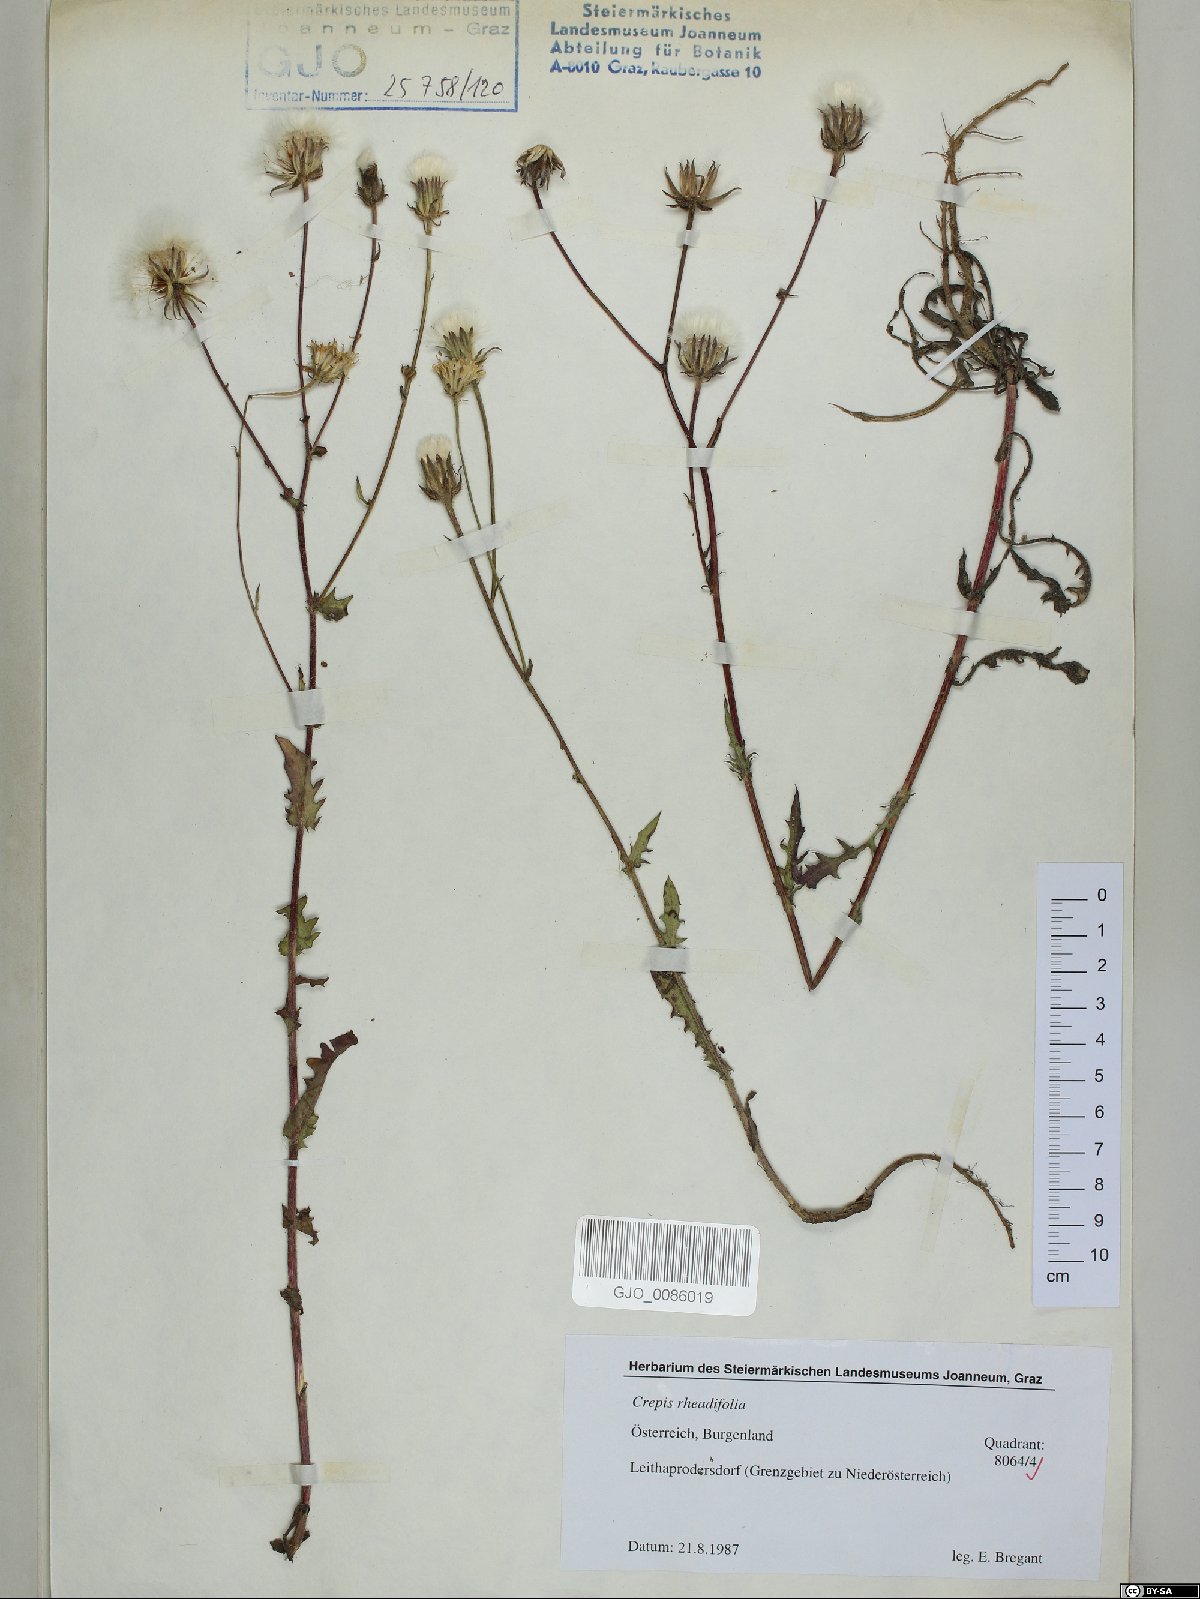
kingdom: Plantae
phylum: Tracheophyta
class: Magnoliopsida
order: Asterales
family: Asteraceae
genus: Crepis
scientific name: Crepis foetida
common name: Stinking hawk's-beard
